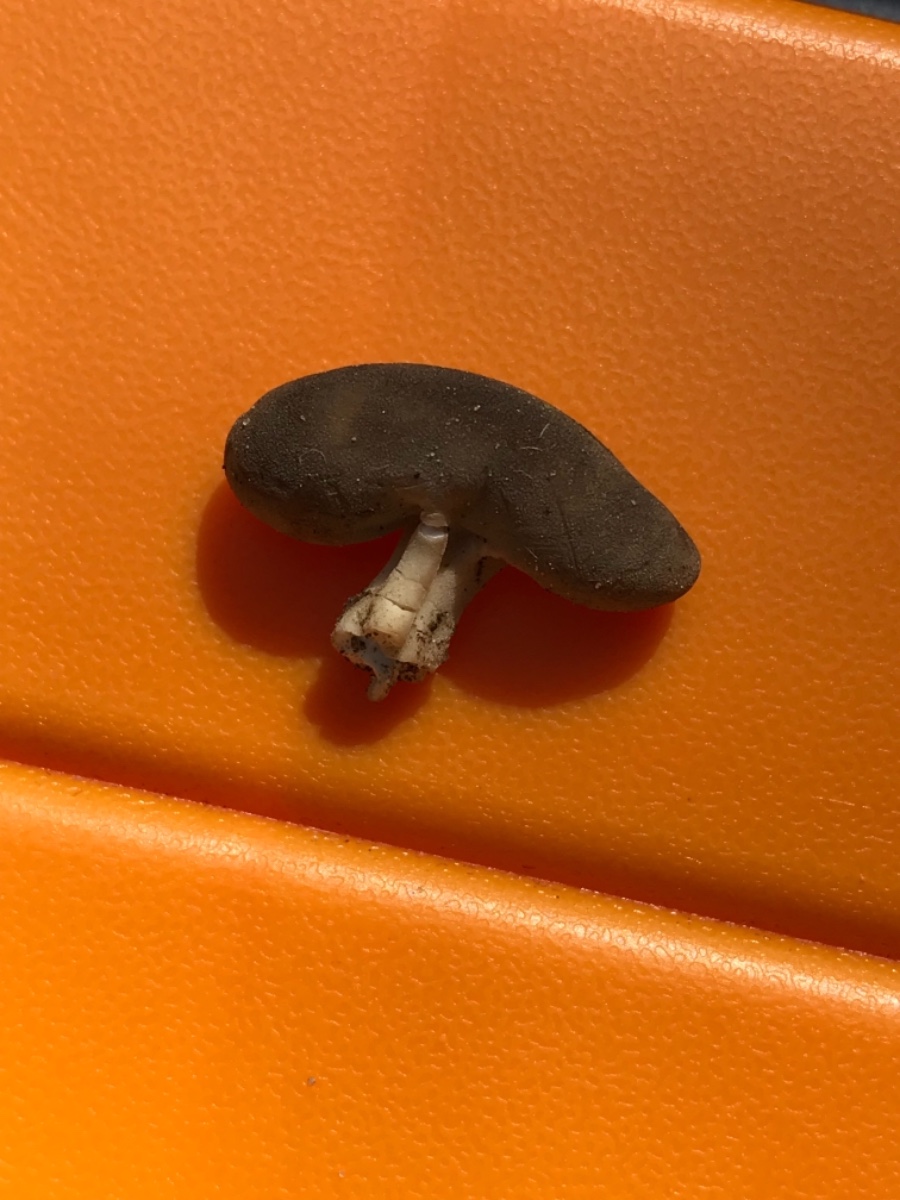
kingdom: Fungi
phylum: Ascomycota
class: Pezizomycetes
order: Pezizales
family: Helvellaceae
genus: Helvella
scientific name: Helvella
